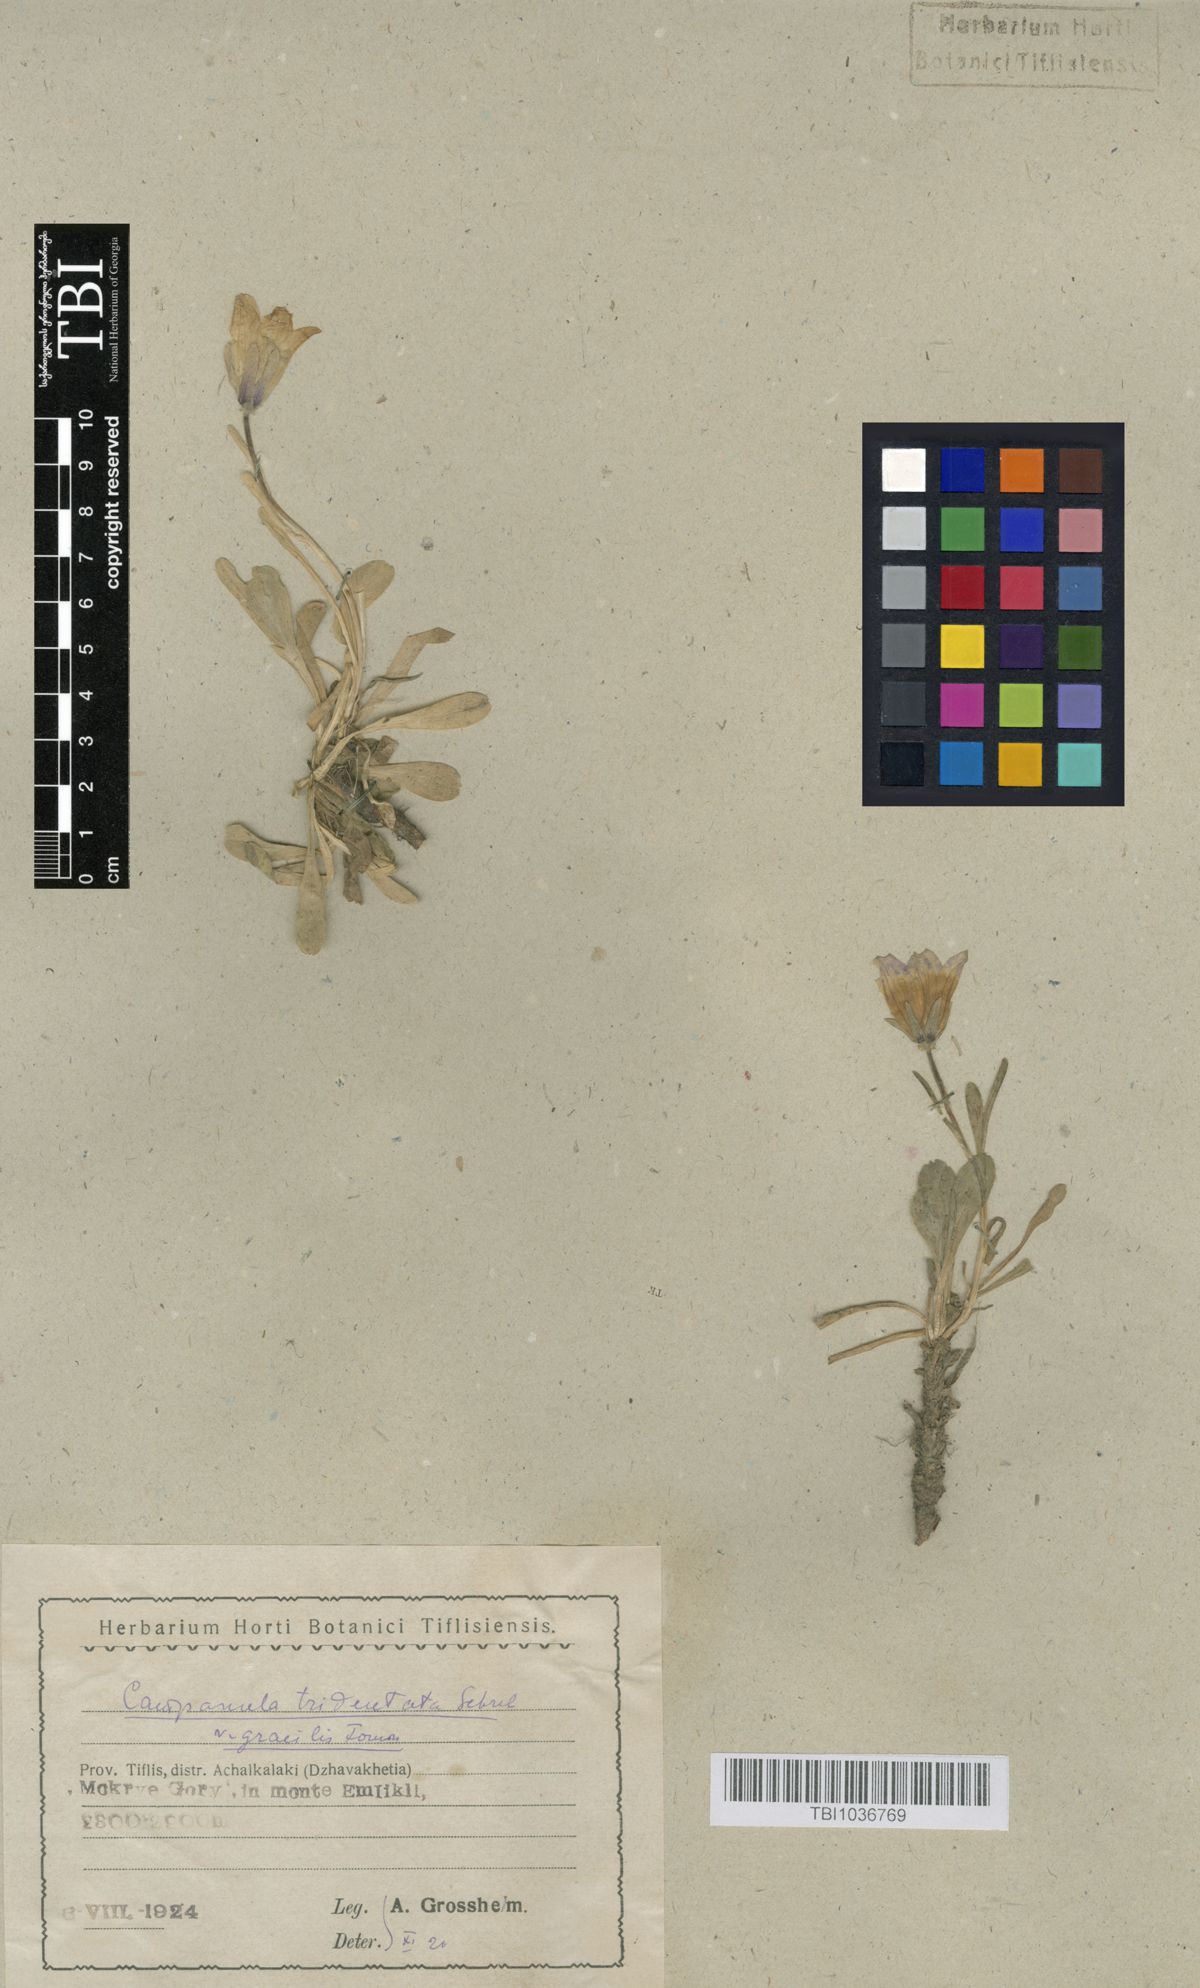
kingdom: Plantae
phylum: Tracheophyta
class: Magnoliopsida
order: Asterales
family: Campanulaceae
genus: Campanula
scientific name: Campanula tridentata
